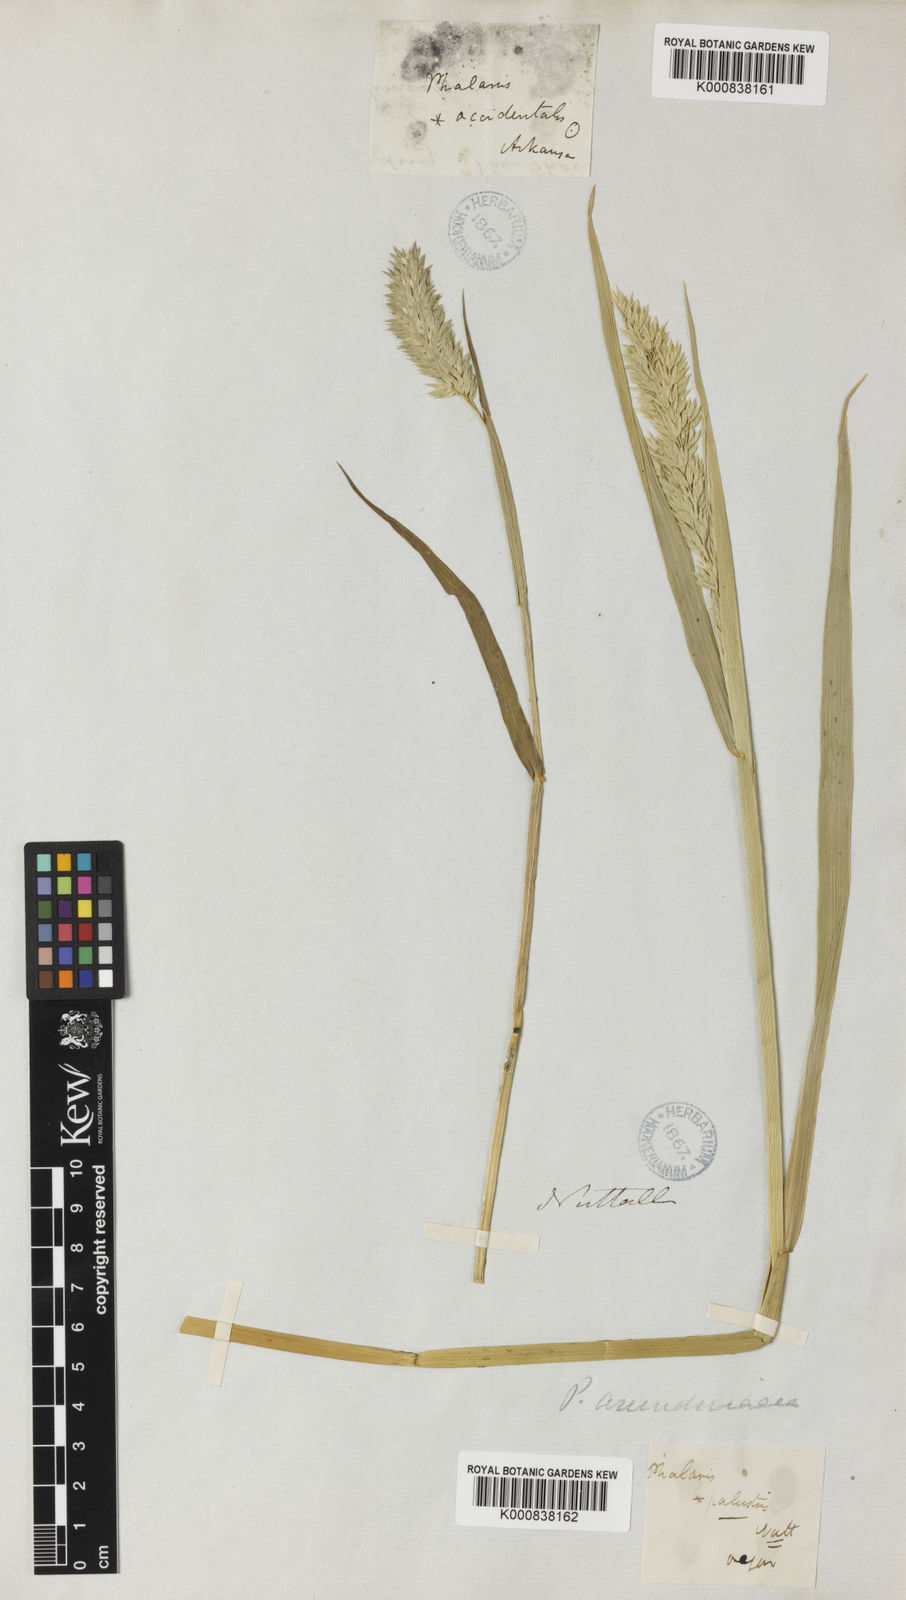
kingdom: Plantae
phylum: Tracheophyta
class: Liliopsida
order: Poales
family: Poaceae
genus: Phalaris
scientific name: Phalaris caroliniana
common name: May grass
